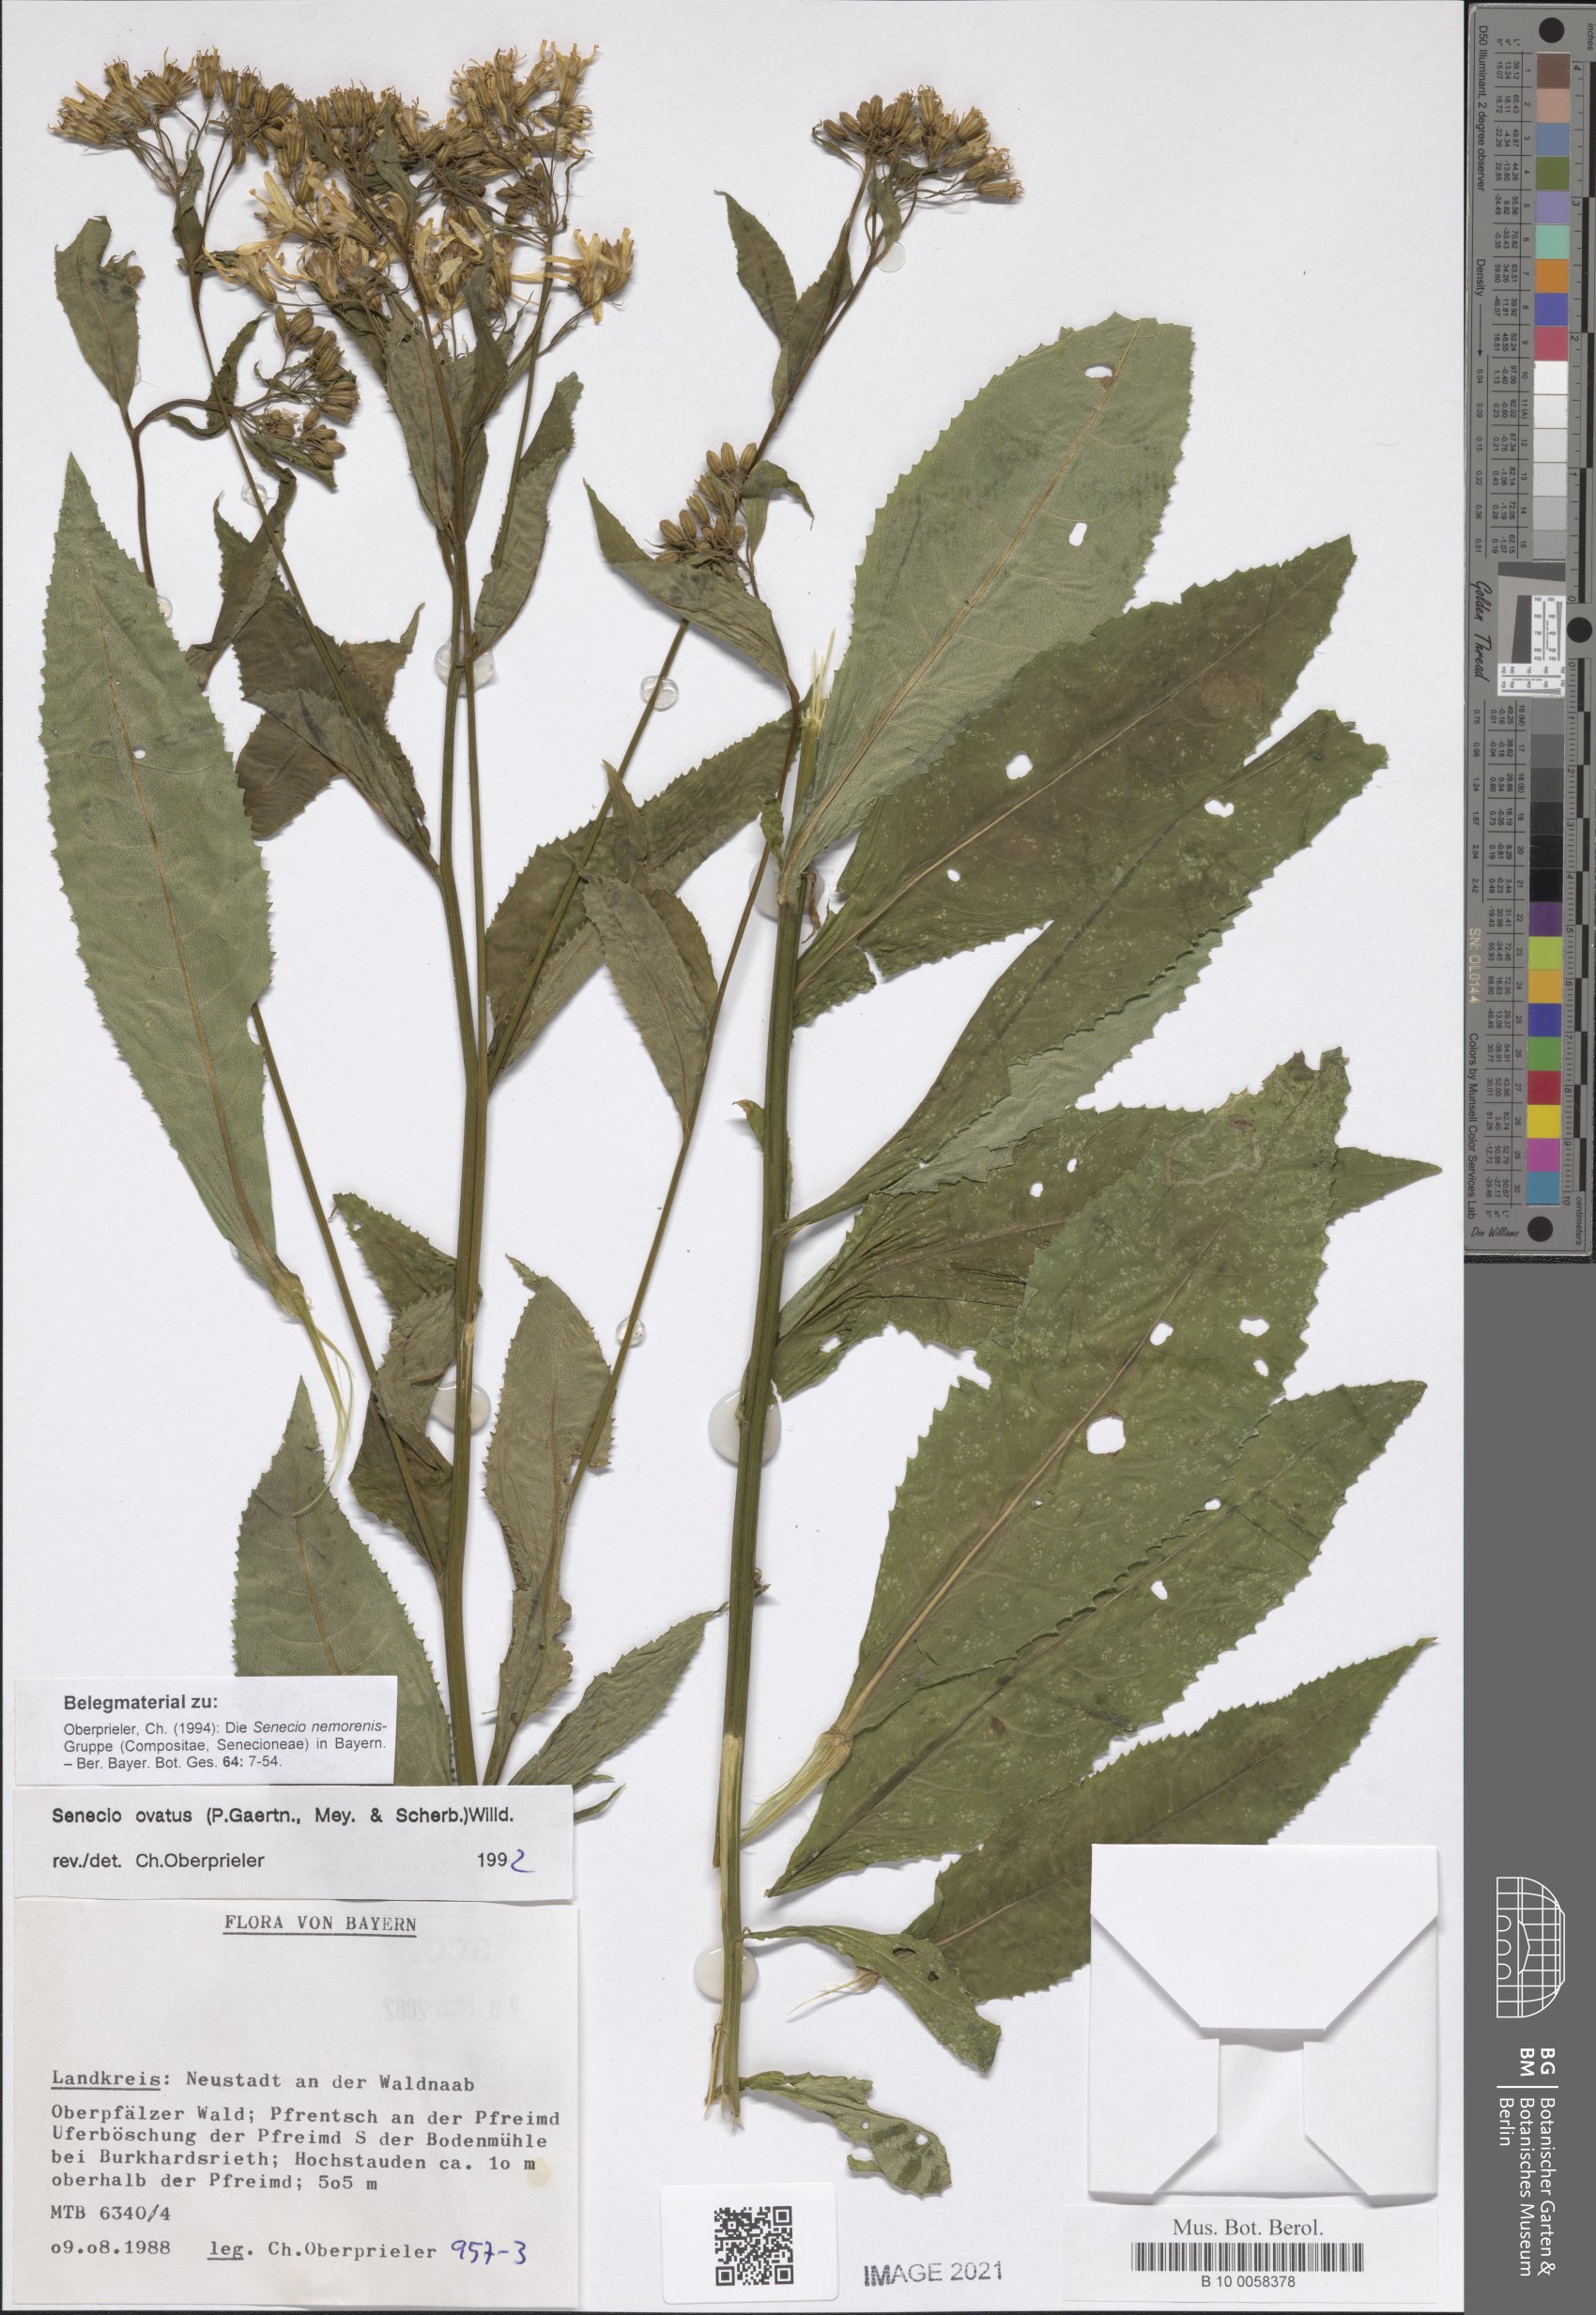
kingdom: Plantae
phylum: Tracheophyta
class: Magnoliopsida
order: Asterales
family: Asteraceae
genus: Senecio
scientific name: Senecio ovatus
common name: Wood ragwort
